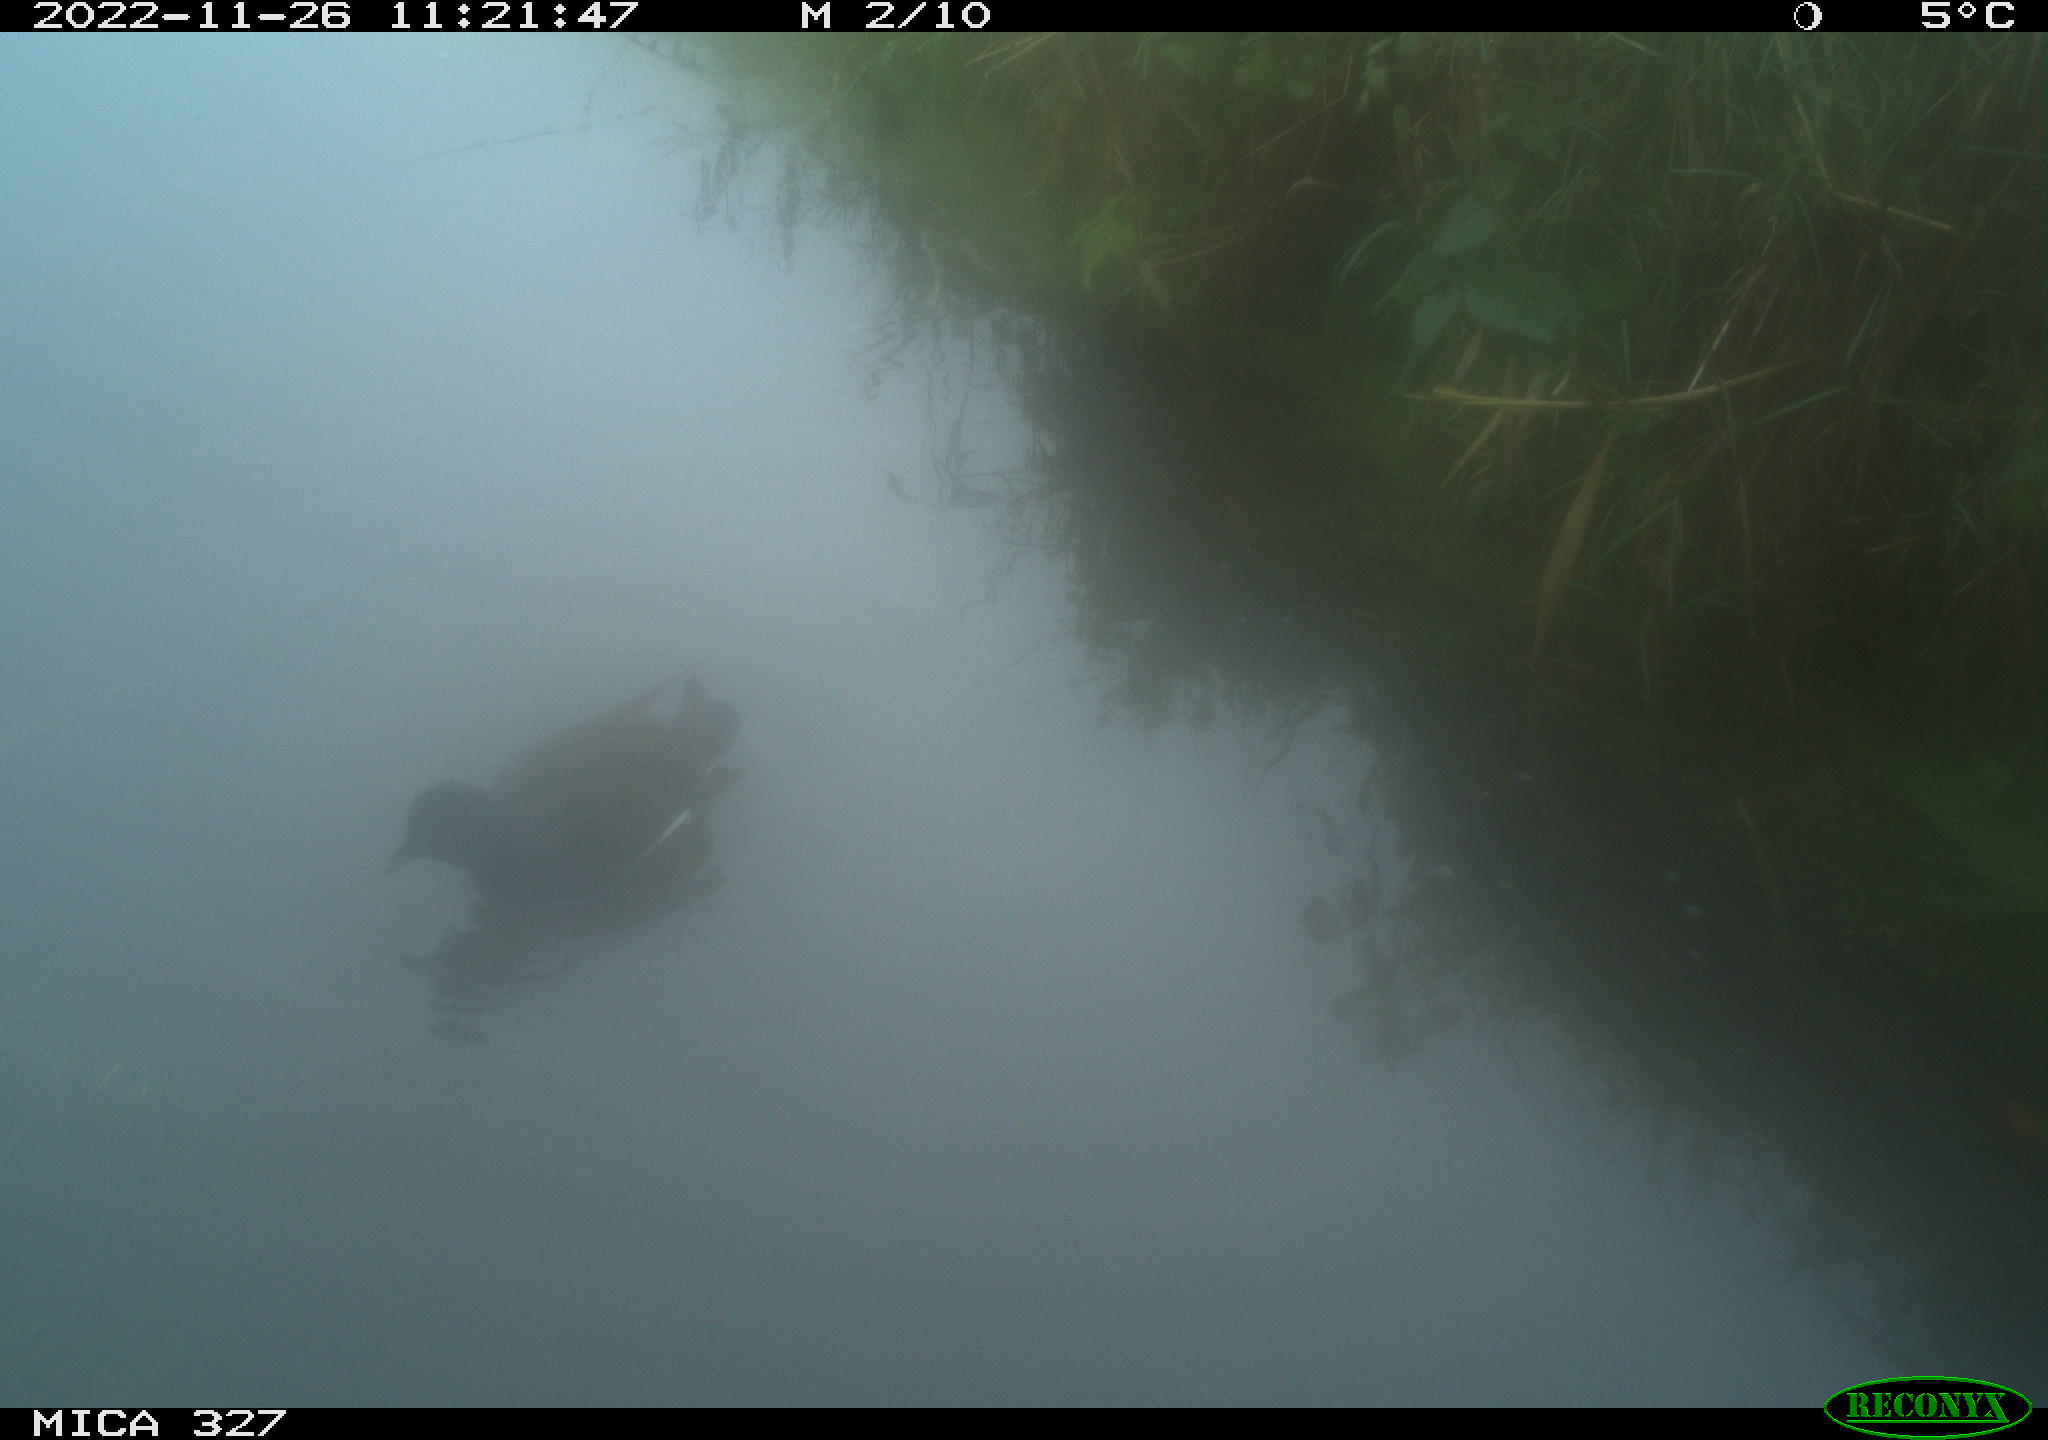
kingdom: Animalia
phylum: Chordata
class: Aves
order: Gruiformes
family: Rallidae
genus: Gallinula
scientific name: Gallinula chloropus
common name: Common moorhen
